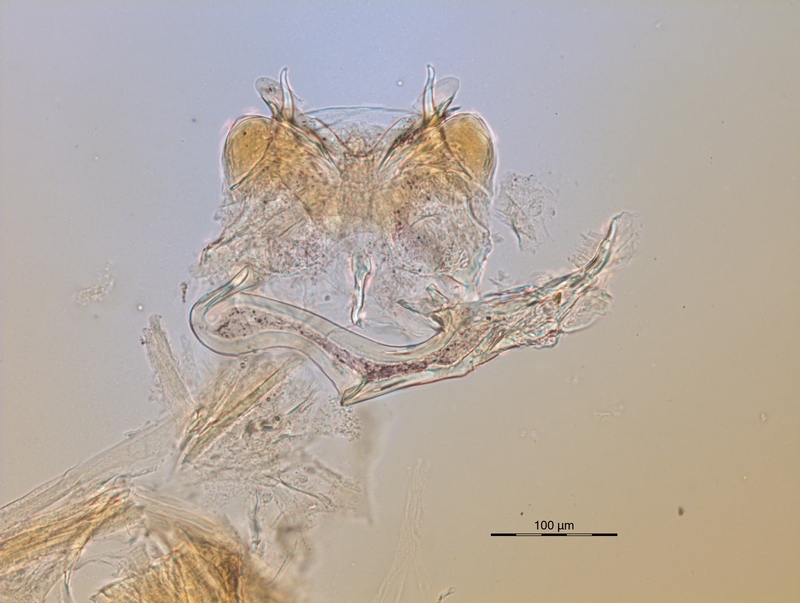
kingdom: Animalia
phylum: Arthropoda
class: Diplopoda
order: Chordeumatida
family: Craspedosomatidae
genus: Ochogona
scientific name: Ochogona euganeorum
